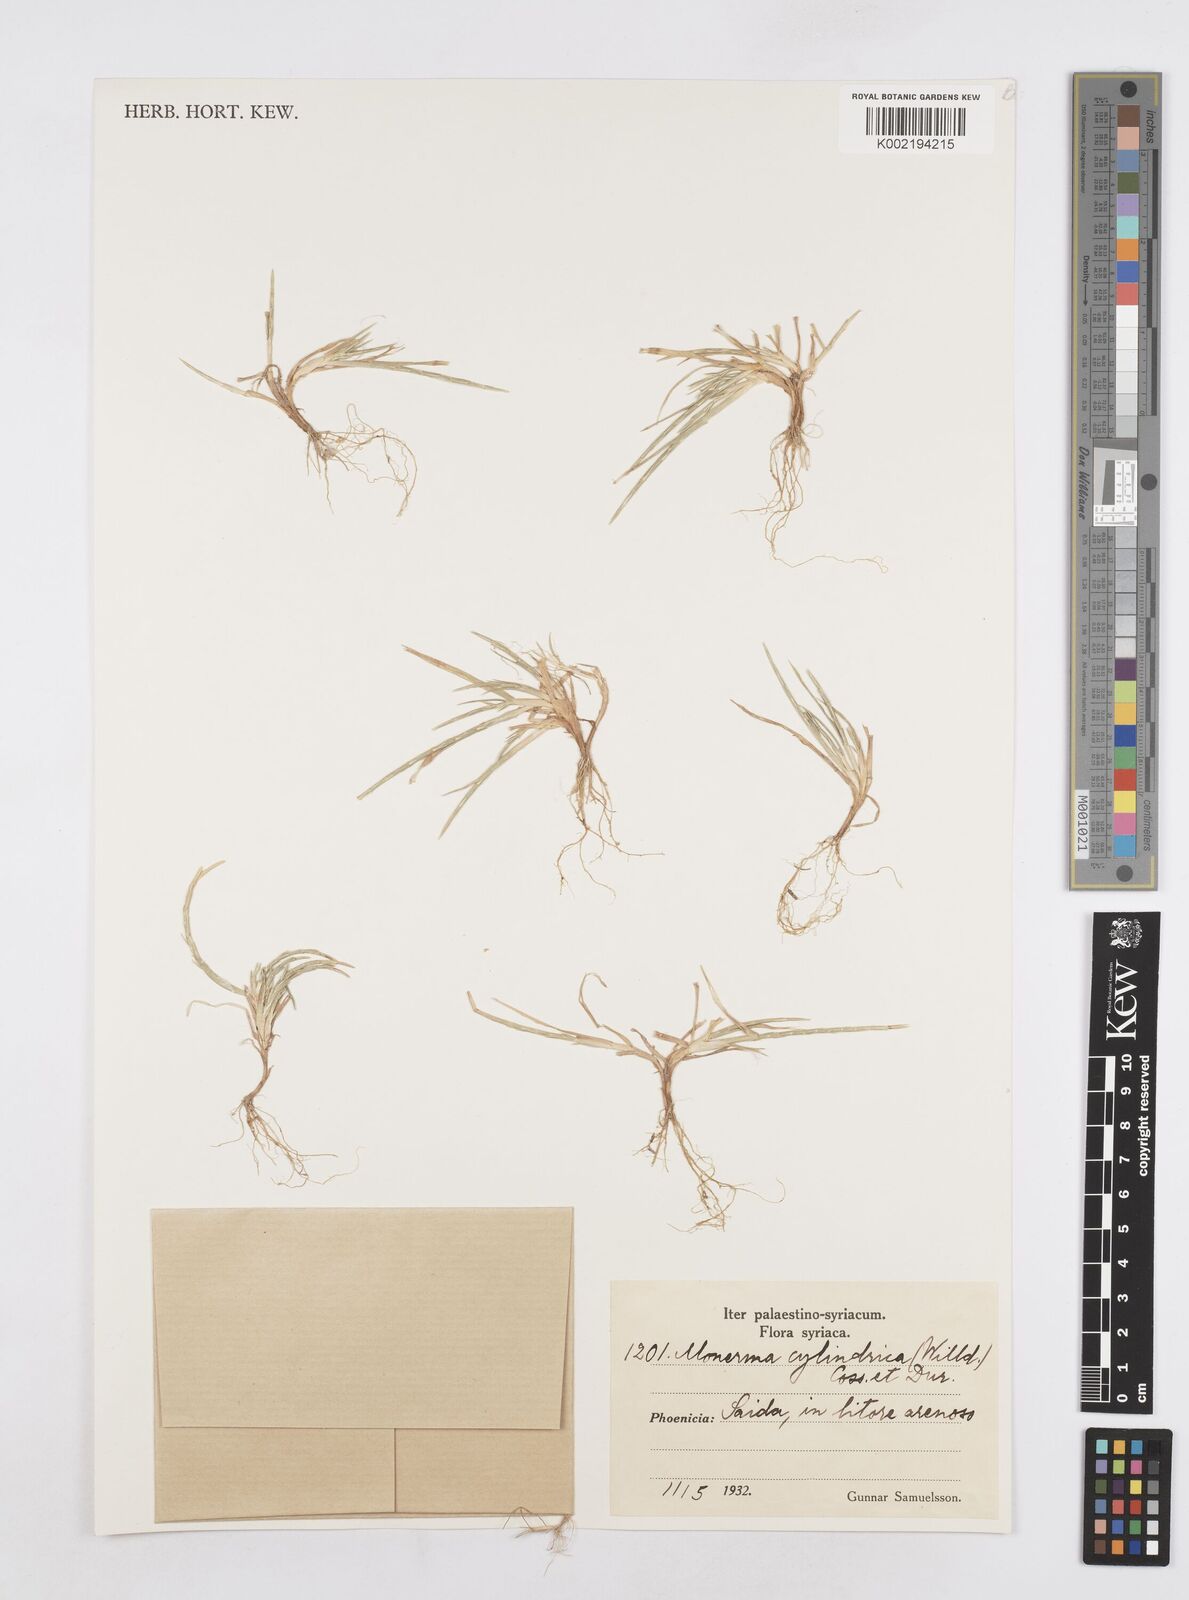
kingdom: Plantae
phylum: Tracheophyta
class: Liliopsida
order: Poales
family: Poaceae
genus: Parapholis
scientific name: Parapholis cylindrica
